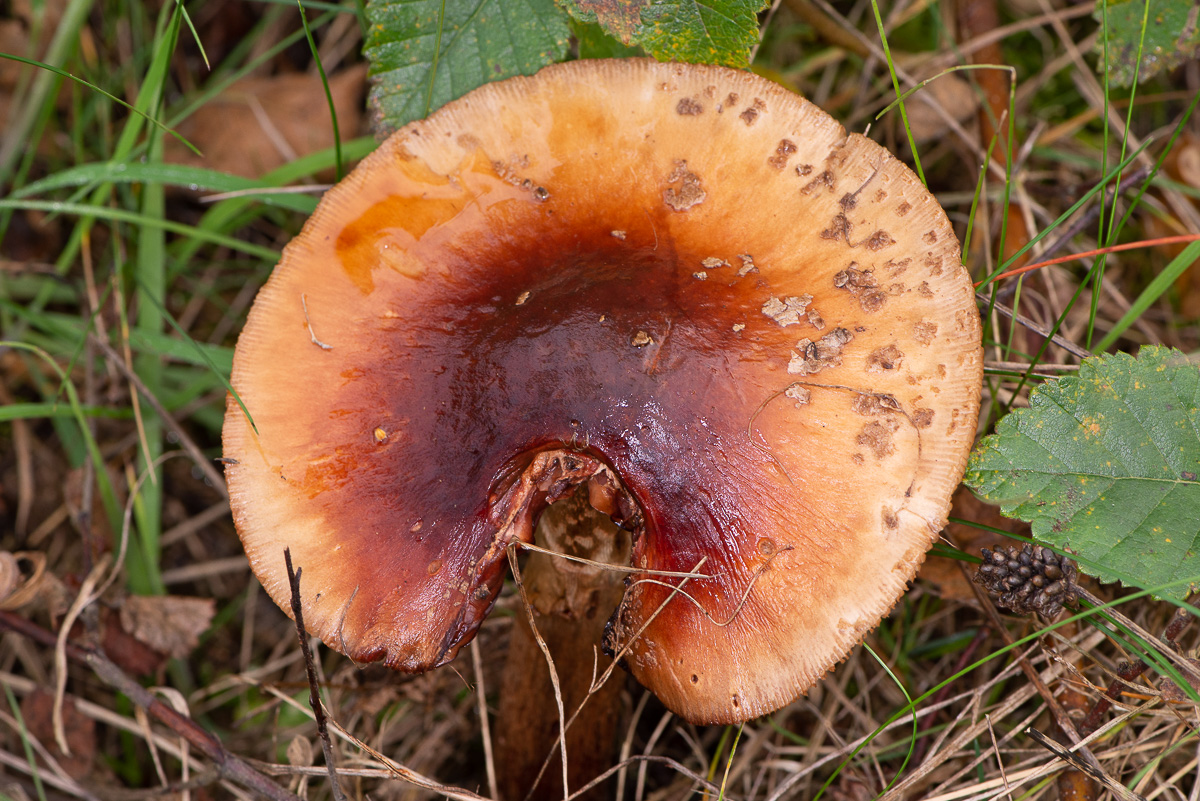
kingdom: Fungi
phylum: Basidiomycota
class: Agaricomycetes
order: Agaricales
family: Amanitaceae
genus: Amanita
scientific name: Amanita rubescens
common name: rødmende fluesvamp
